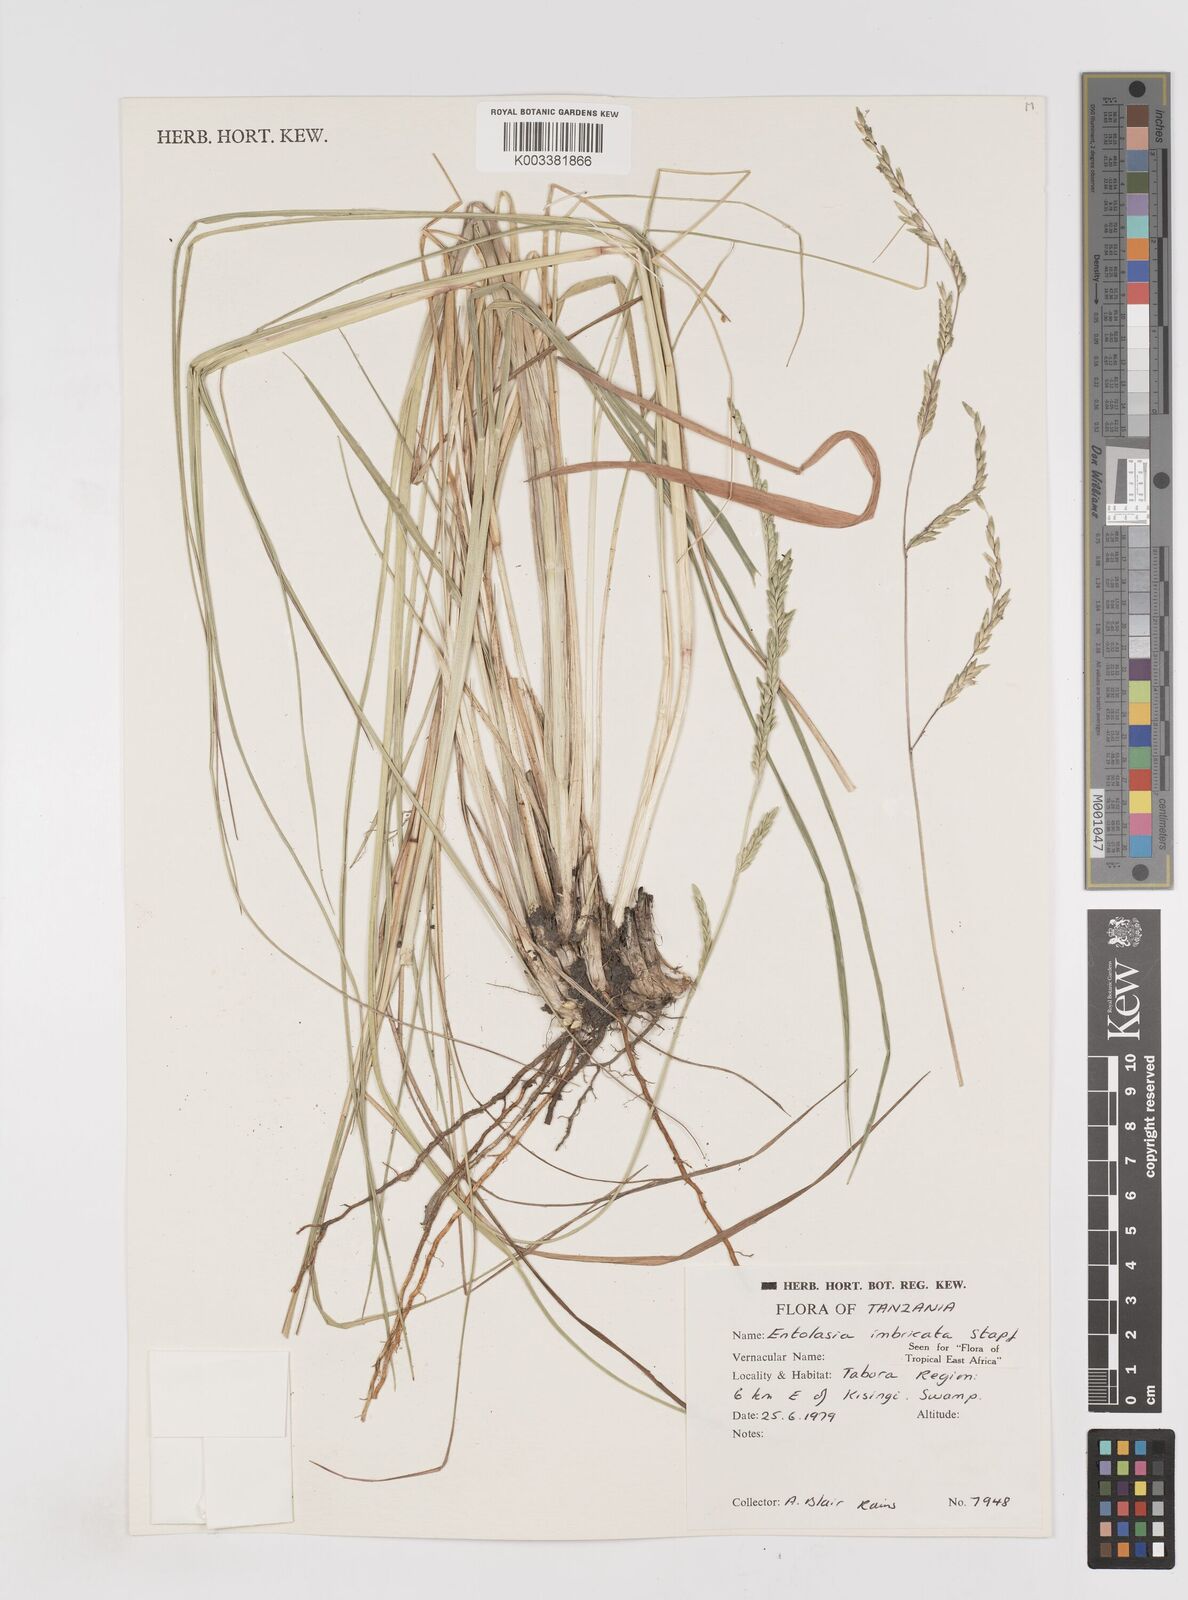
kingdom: Plantae
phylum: Tracheophyta
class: Liliopsida
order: Poales
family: Poaceae
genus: Entolasia
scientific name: Entolasia imbricata
